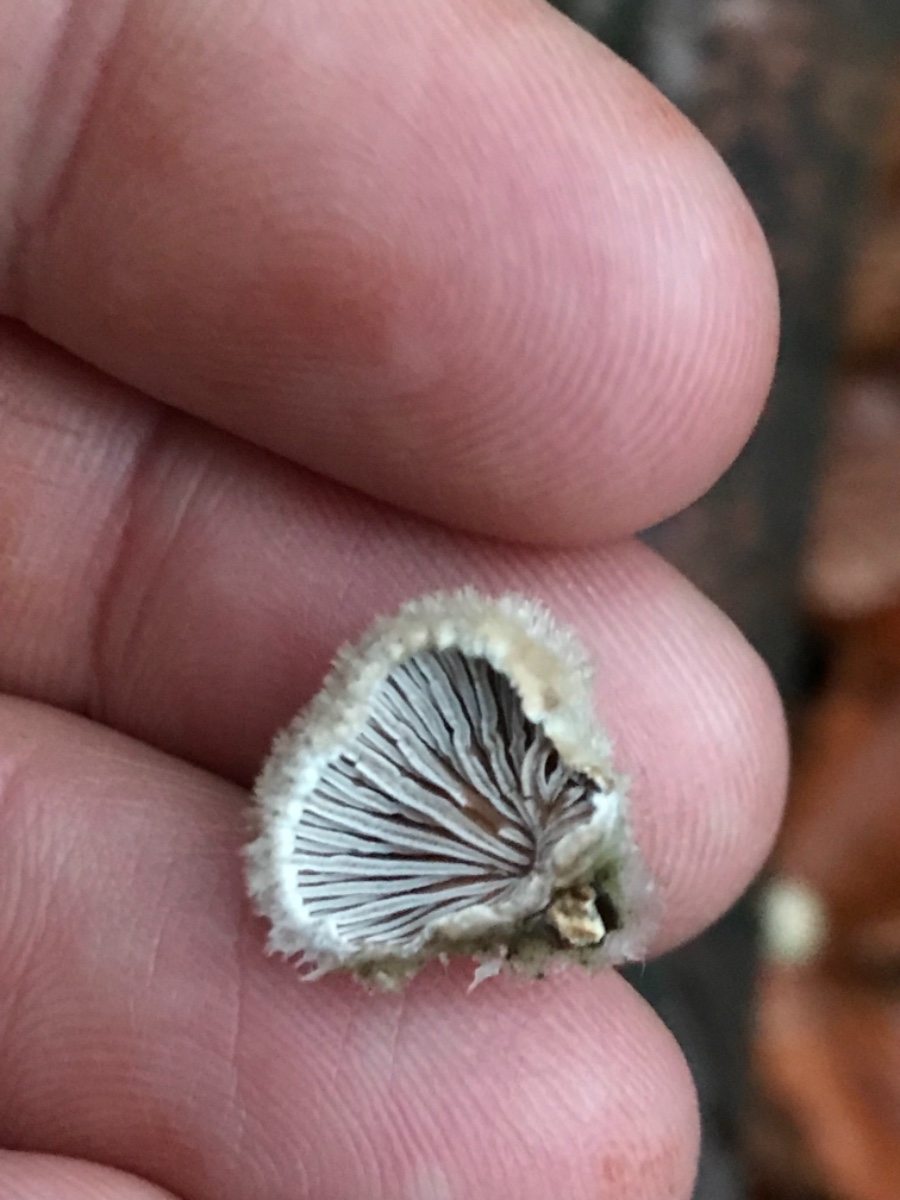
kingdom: Fungi
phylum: Basidiomycota
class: Agaricomycetes
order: Agaricales
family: Schizophyllaceae
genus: Schizophyllum
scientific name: Schizophyllum commune
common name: kløvblad
